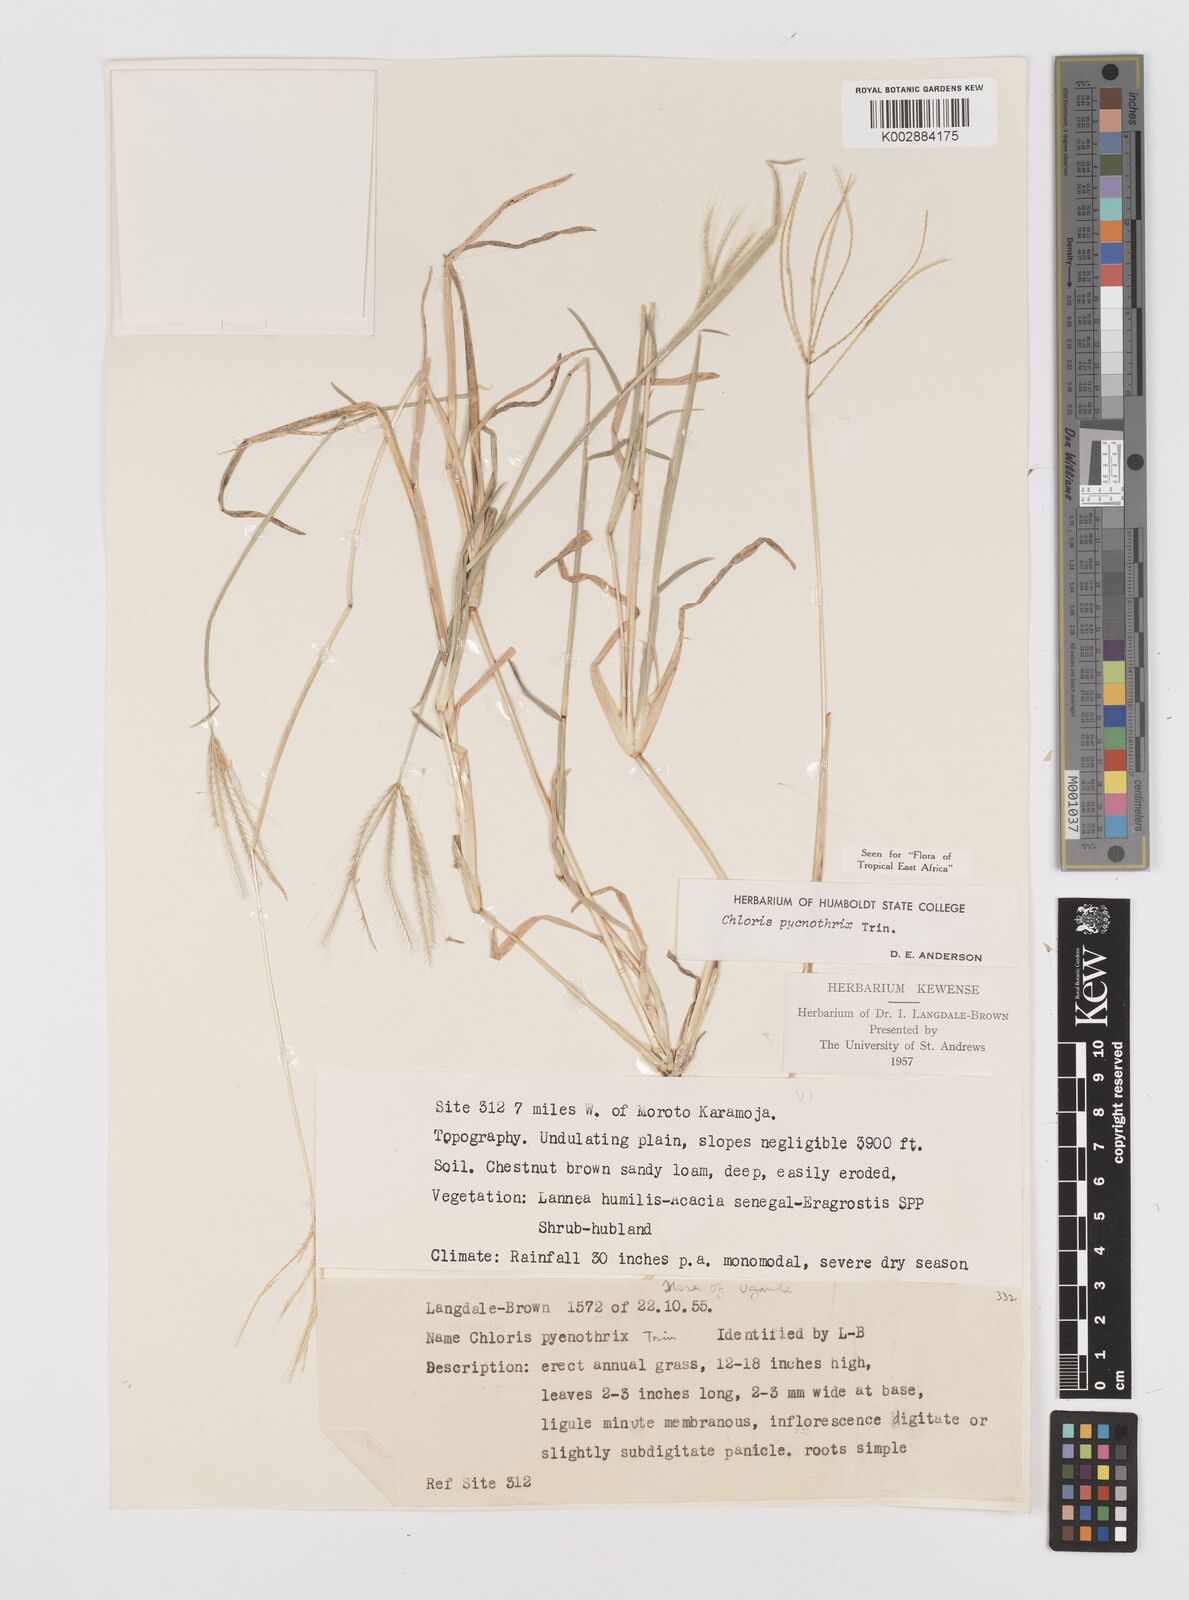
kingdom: Plantae
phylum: Tracheophyta
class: Liliopsida
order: Poales
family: Poaceae
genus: Chloris
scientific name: Chloris pycnothrix
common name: Spiderweb chloris
